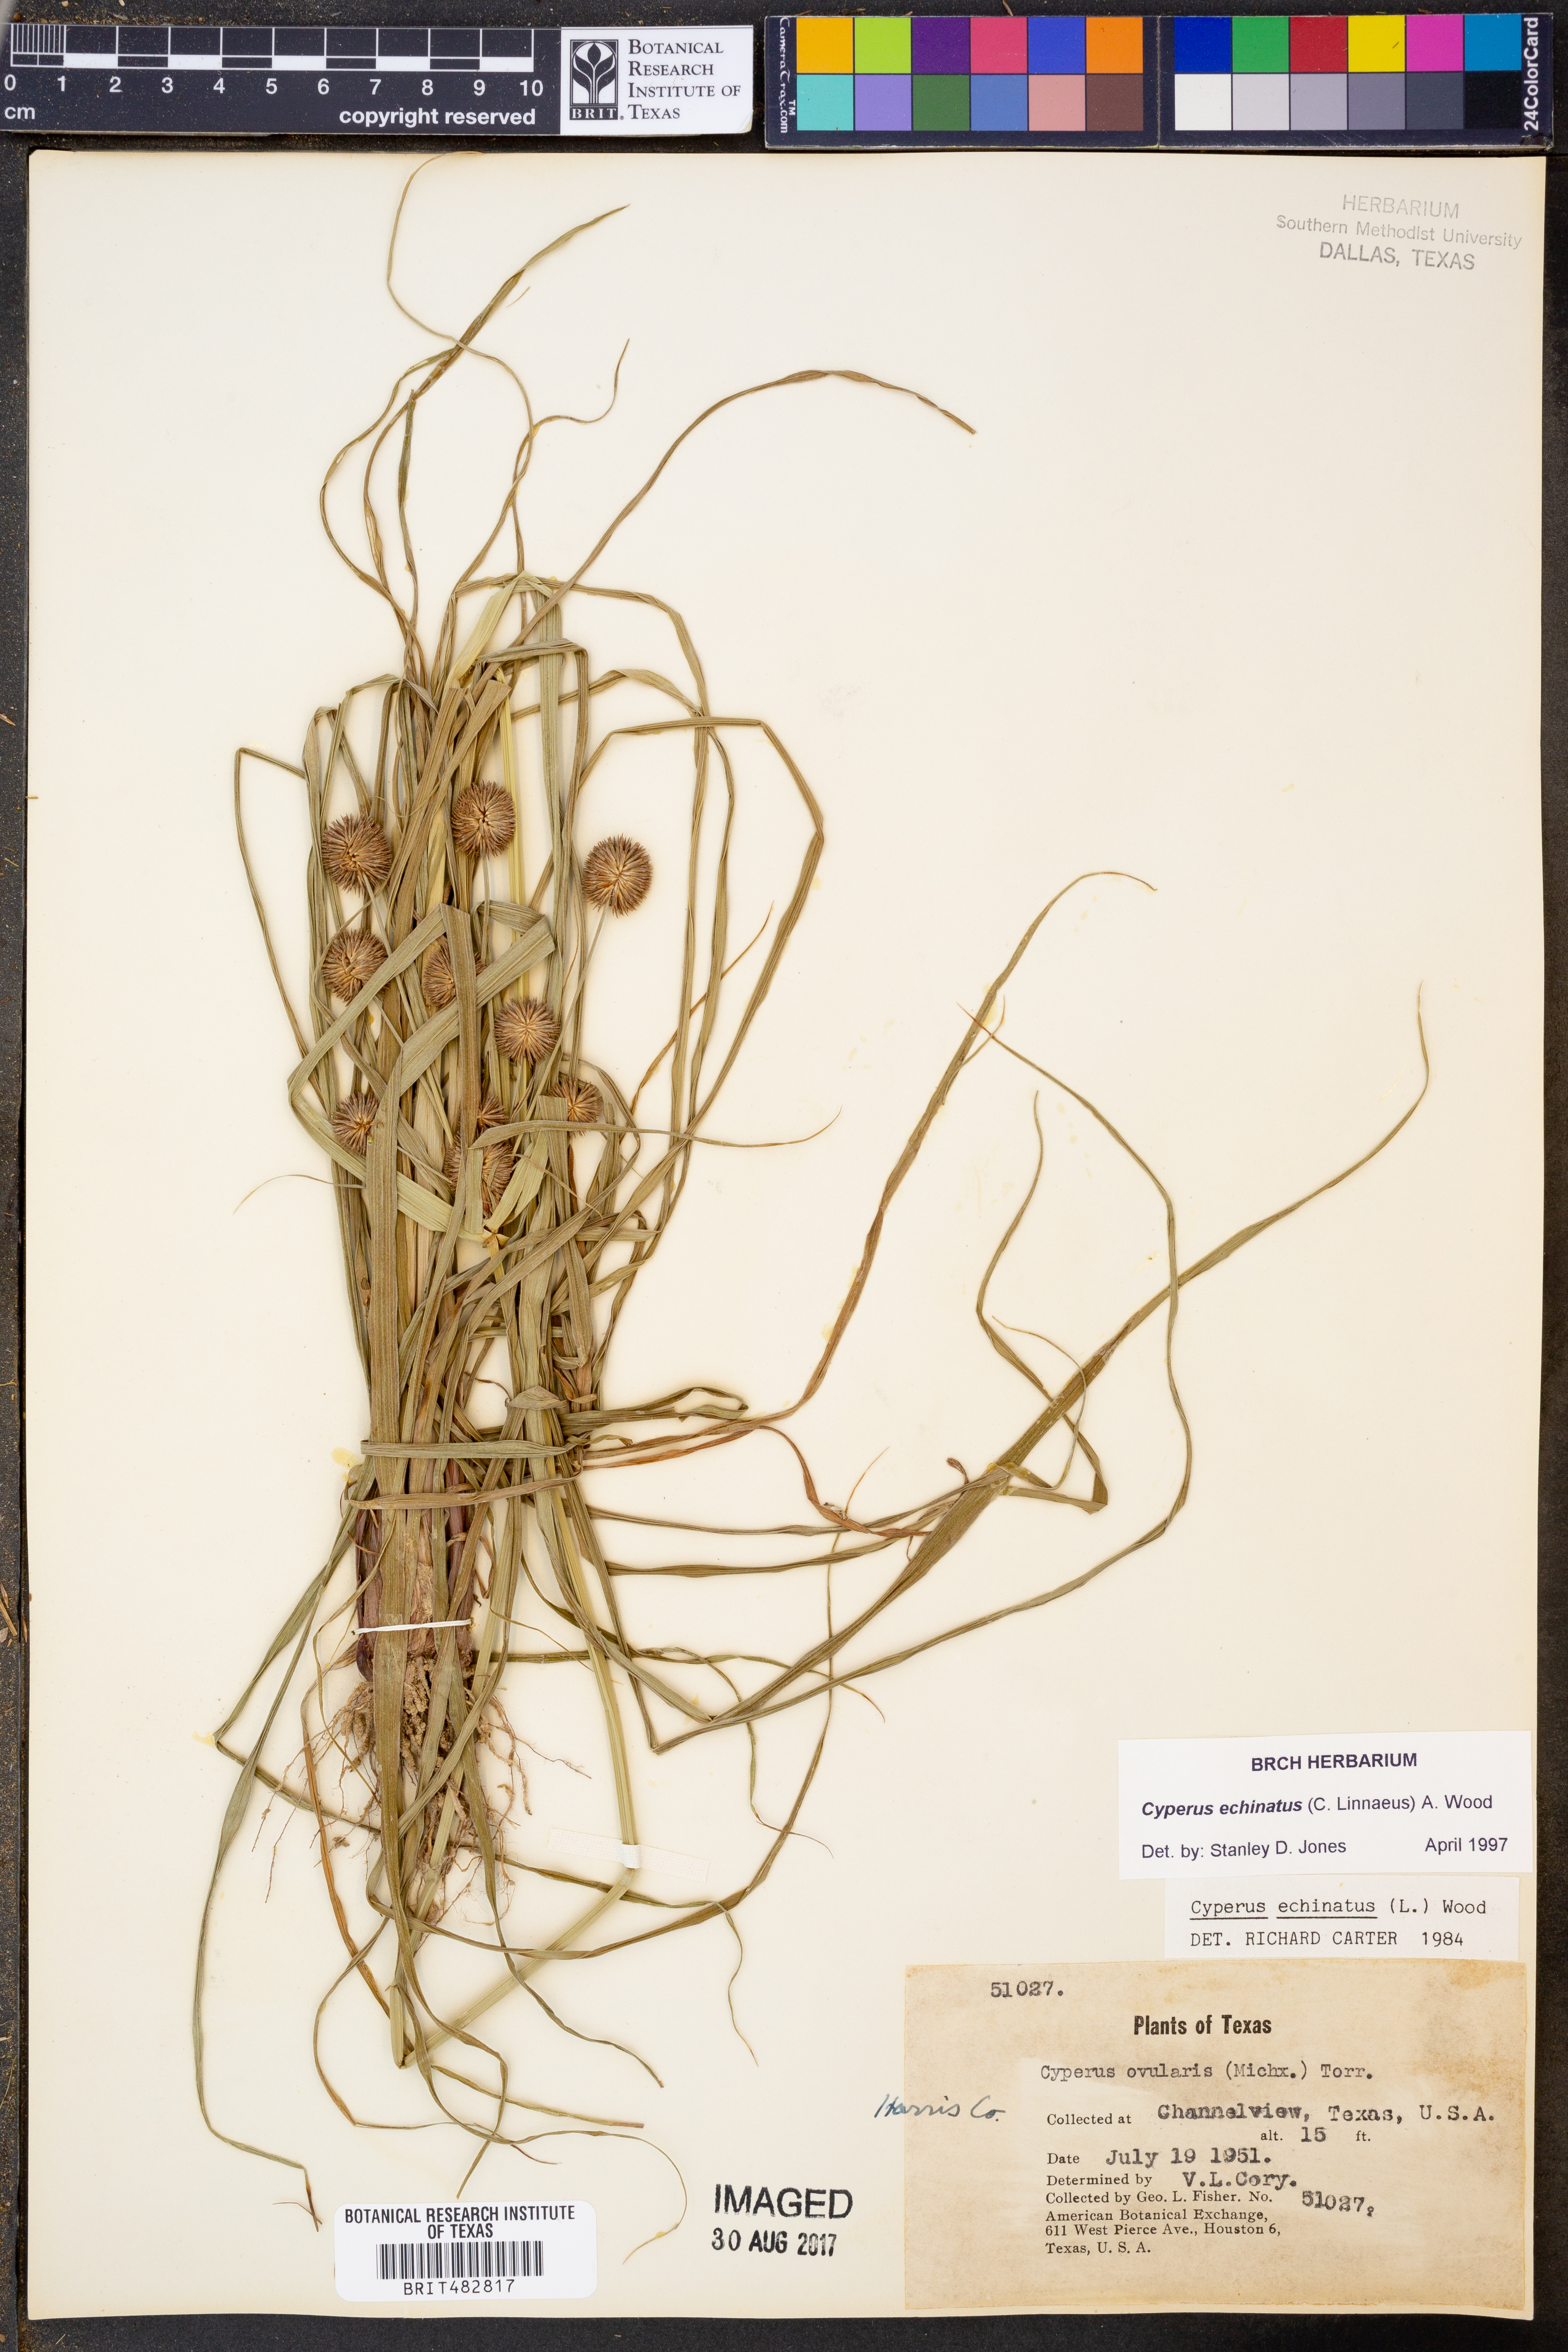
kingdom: Plantae
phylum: Tracheophyta
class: Liliopsida
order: Poales
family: Cyperaceae
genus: Cyperus
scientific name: Cyperus echinatus
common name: Teasel sedge
